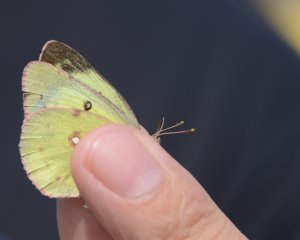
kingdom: Animalia
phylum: Arthropoda
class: Insecta
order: Lepidoptera
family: Pieridae
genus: Colias
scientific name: Colias philodice
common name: Clouded Sulphur
